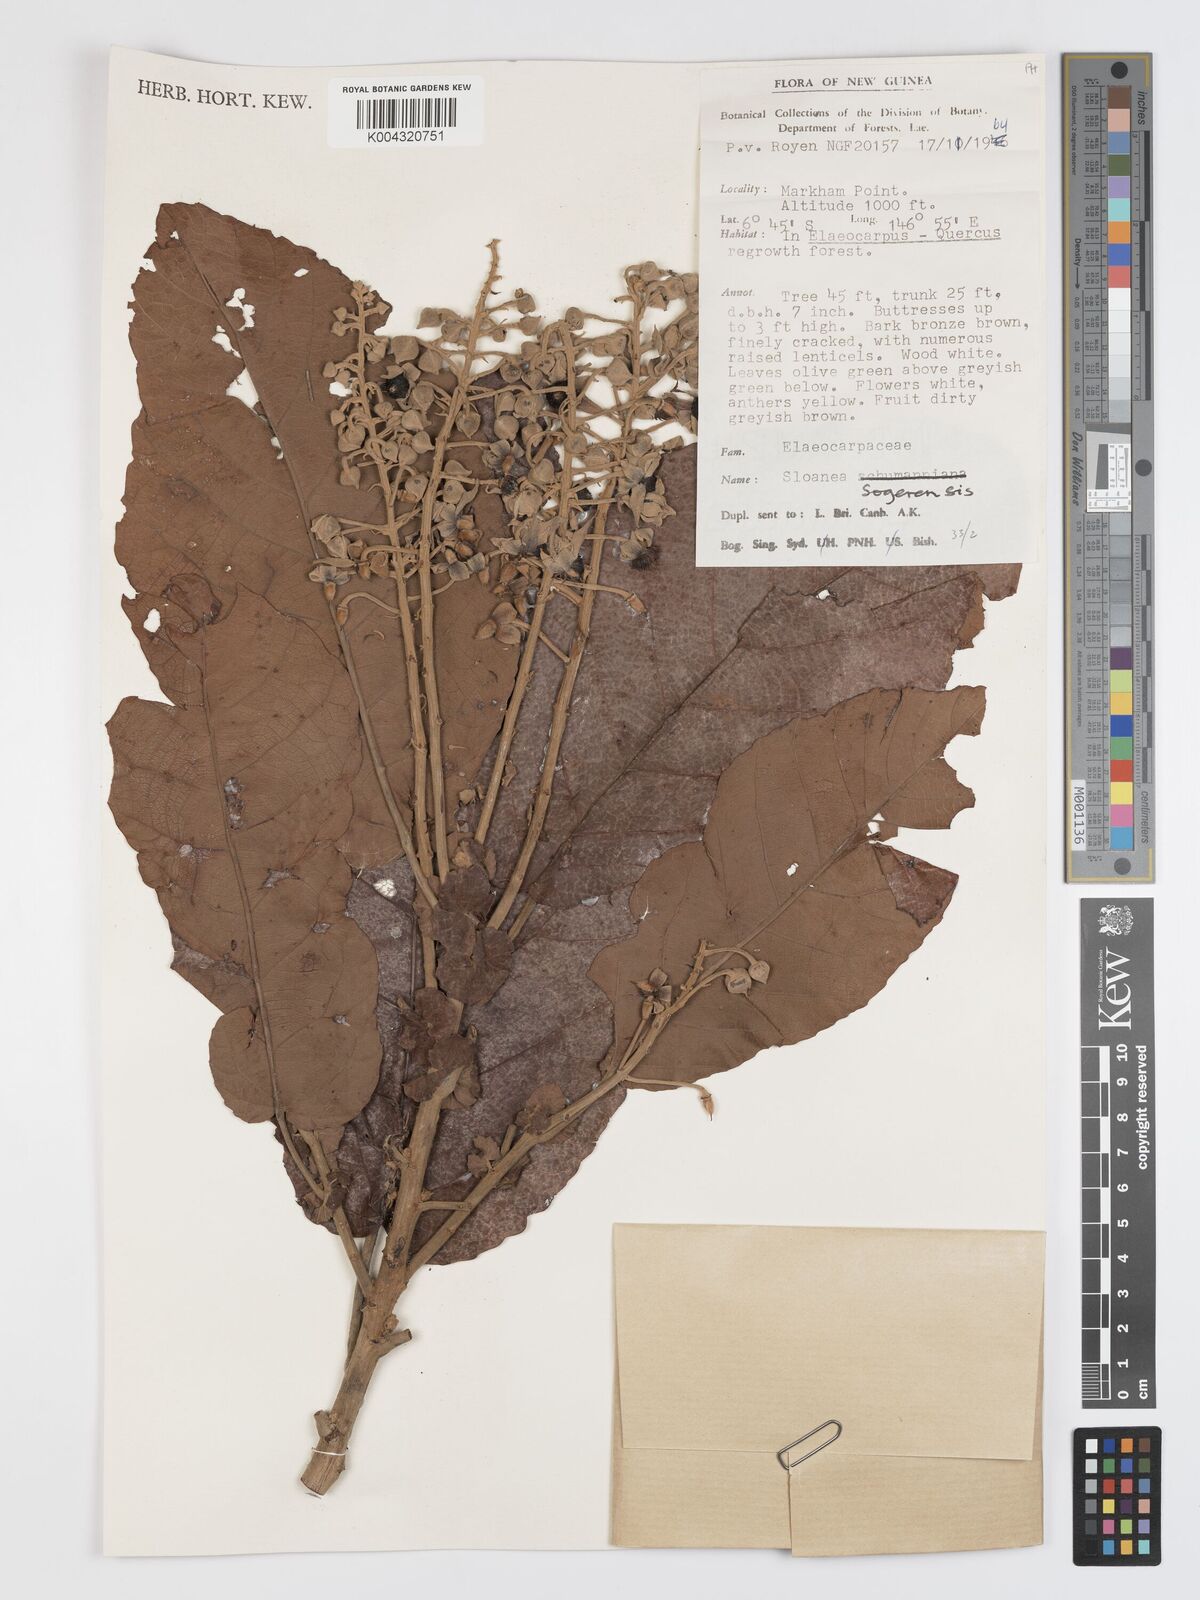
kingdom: Plantae
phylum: Tracheophyta
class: Magnoliopsida
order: Oxalidales
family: Elaeocarpaceae
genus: Sloanea
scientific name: Sloanea sogerensis
